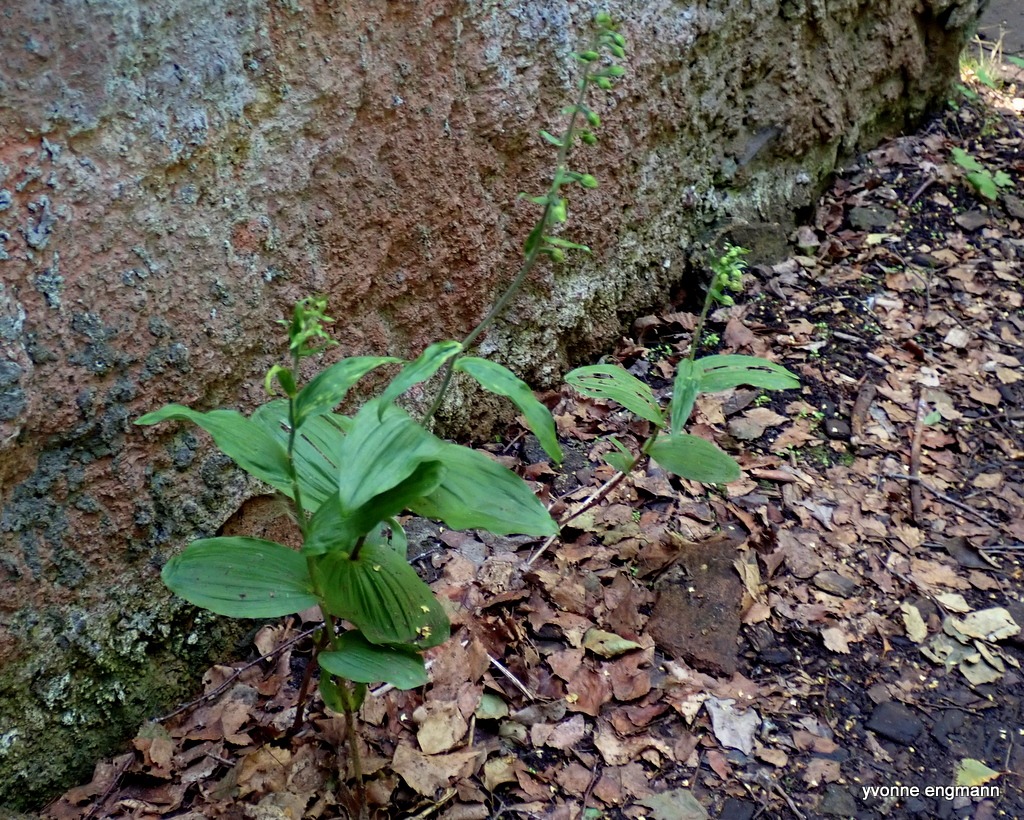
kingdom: Plantae
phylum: Tracheophyta
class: Liliopsida
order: Asparagales
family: Orchidaceae
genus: Epipactis
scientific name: Epipactis helleborine
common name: Skov-hullæbe
